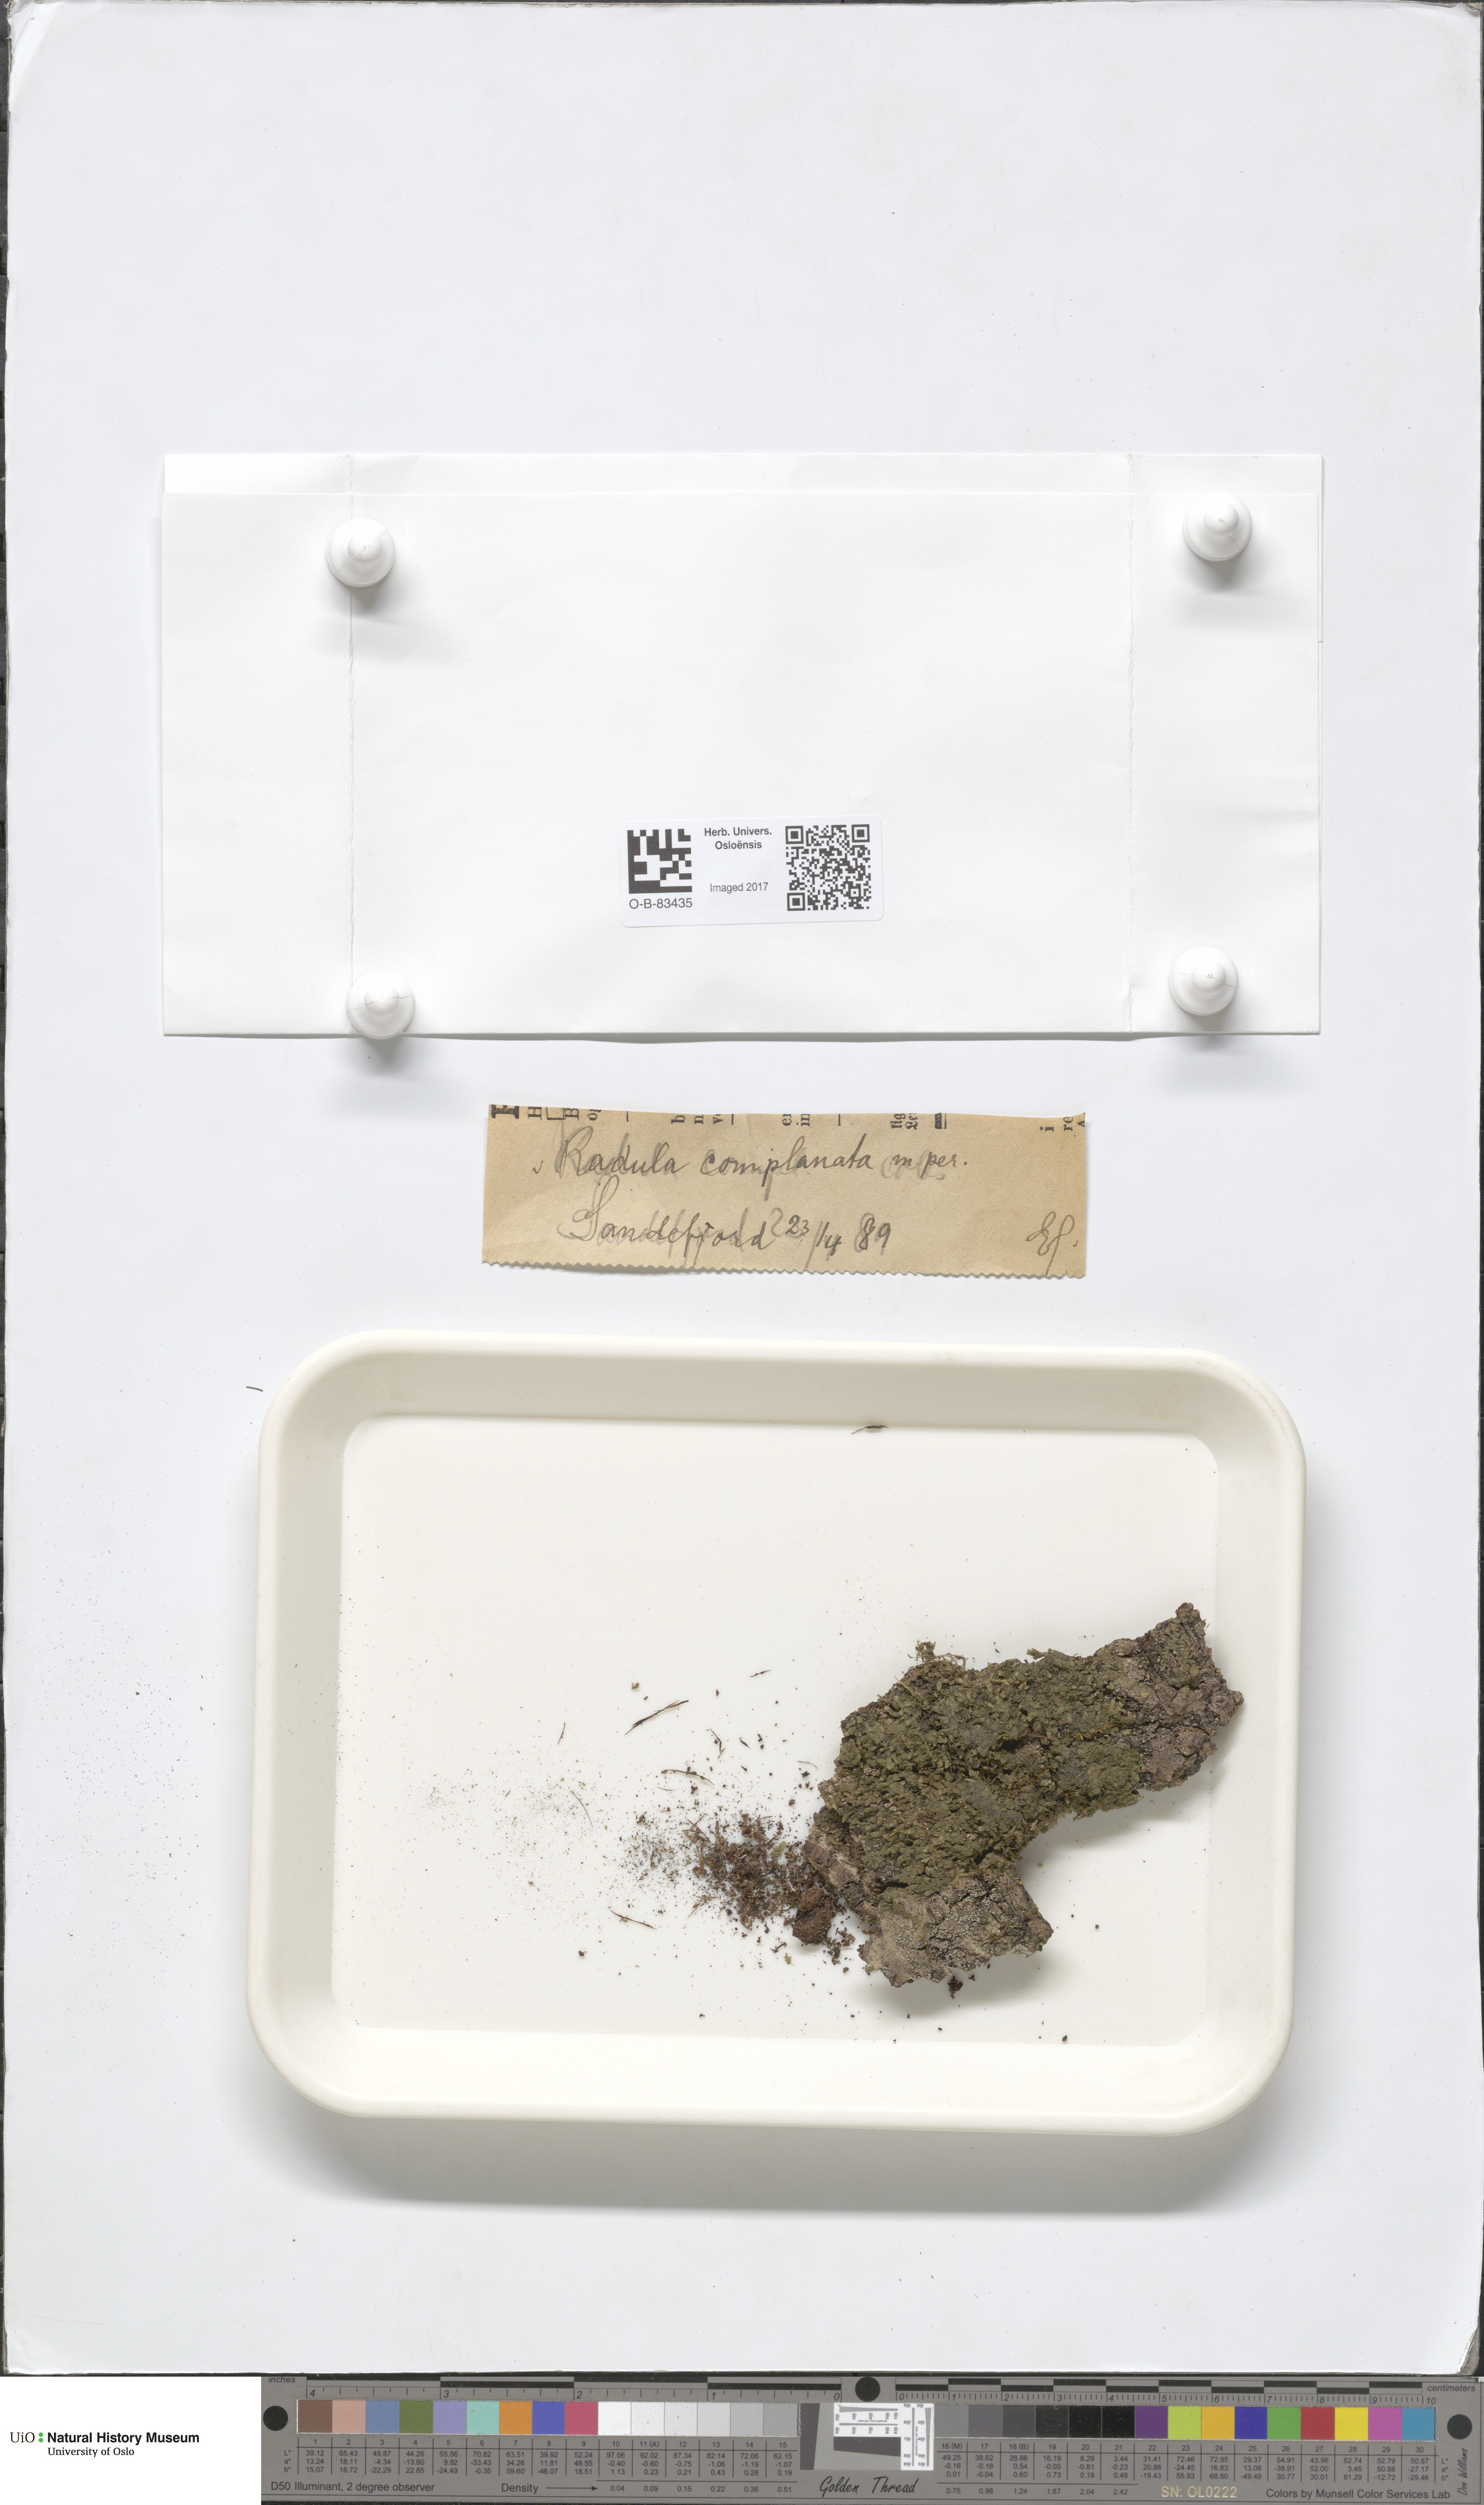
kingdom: Plantae
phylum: Marchantiophyta
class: Jungermanniopsida
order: Porellales
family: Radulaceae
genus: Radula
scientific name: Radula complanata
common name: Flat-leaved scalewort
